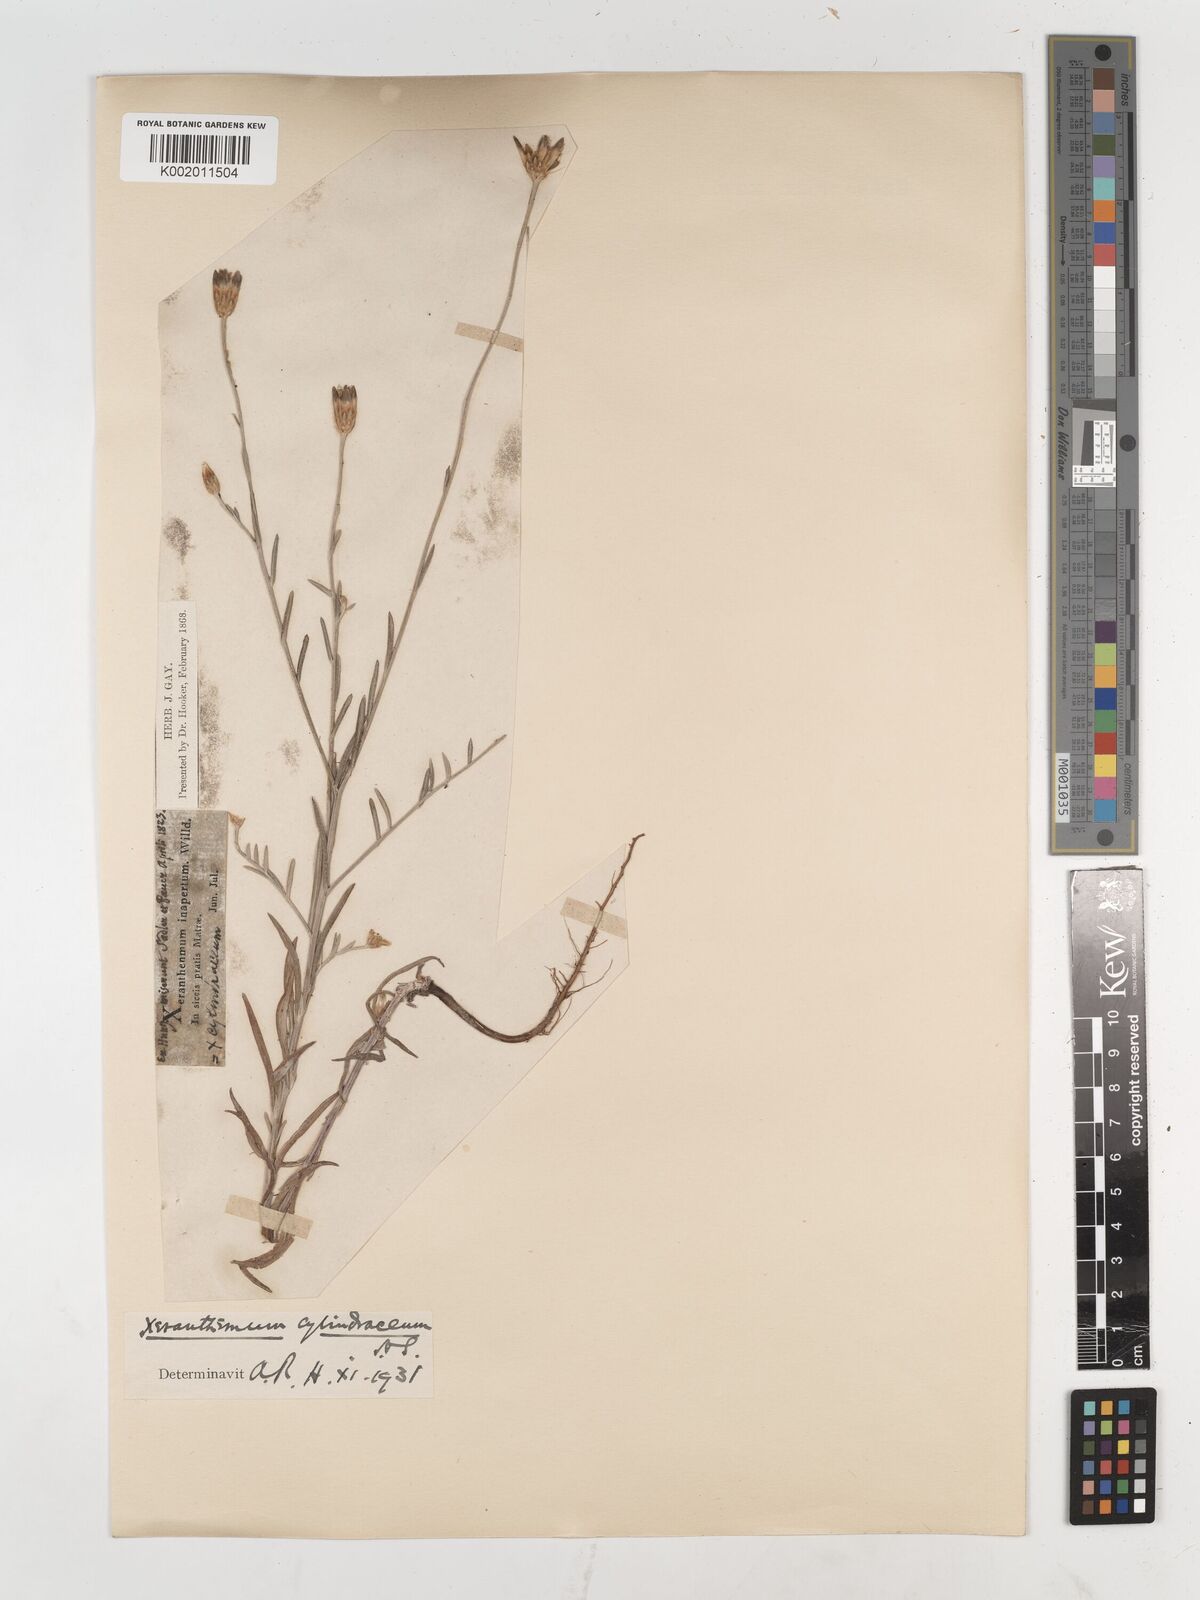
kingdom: Plantae
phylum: Tracheophyta
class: Magnoliopsida
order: Asterales
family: Asteraceae
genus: Xeranthemum
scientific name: Xeranthemum cylindraceum
